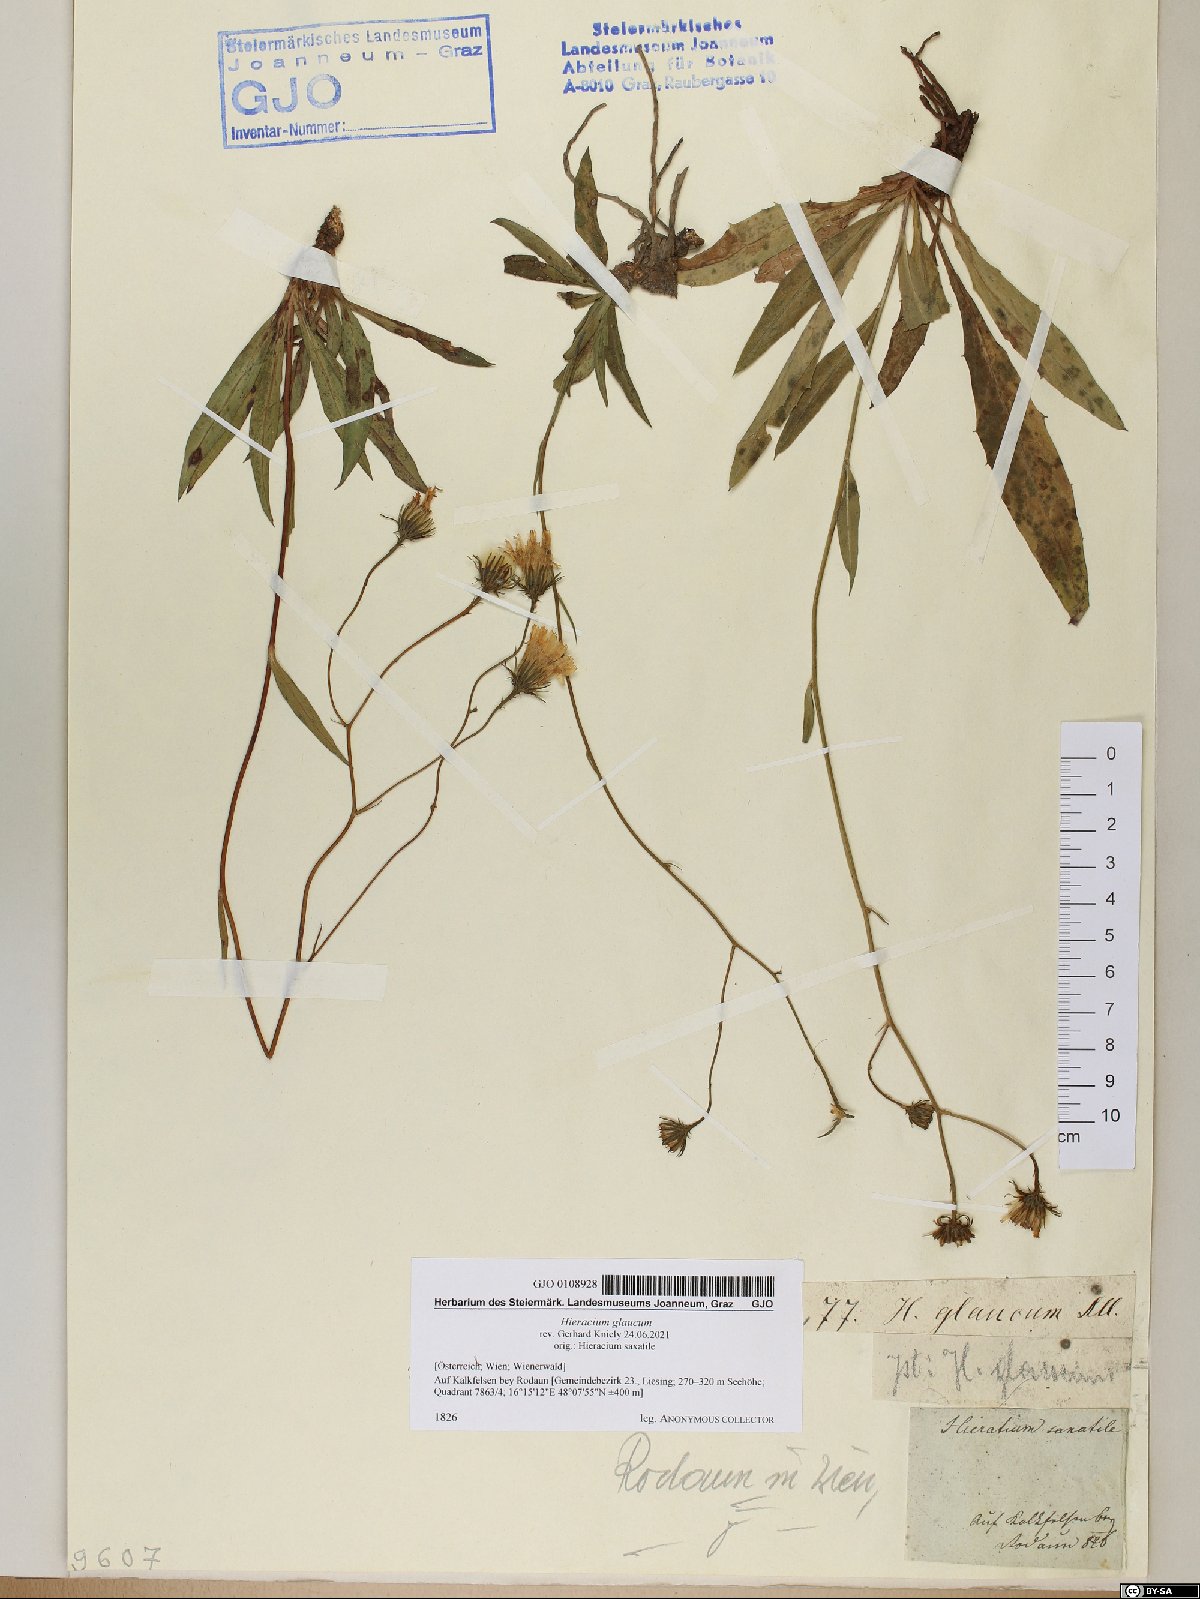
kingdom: Plantae
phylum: Tracheophyta
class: Magnoliopsida
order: Asterales
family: Asteraceae
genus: Hieracium
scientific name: Hieracium glaucum
